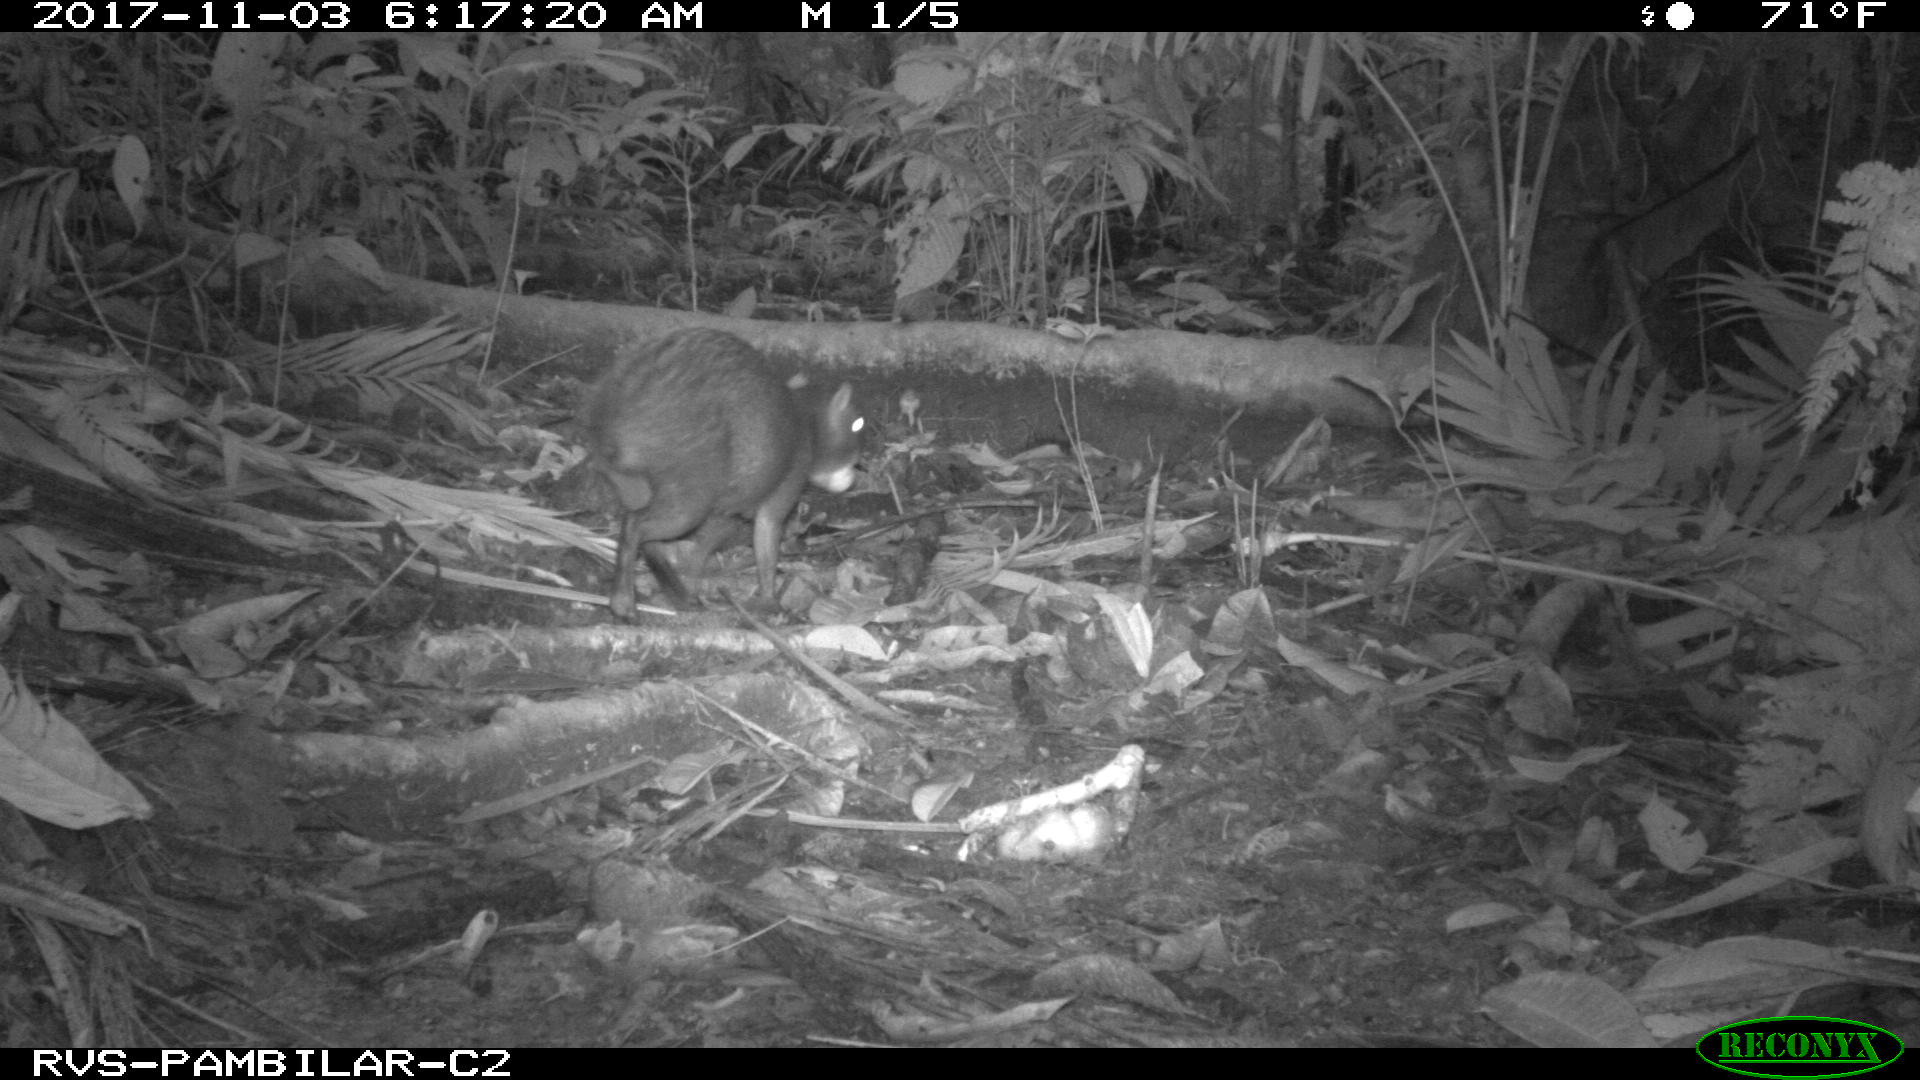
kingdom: Animalia
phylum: Chordata
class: Mammalia
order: Rodentia
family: Dasyproctidae
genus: Dasyprocta
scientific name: Dasyprocta punctata
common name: Central american agouti
